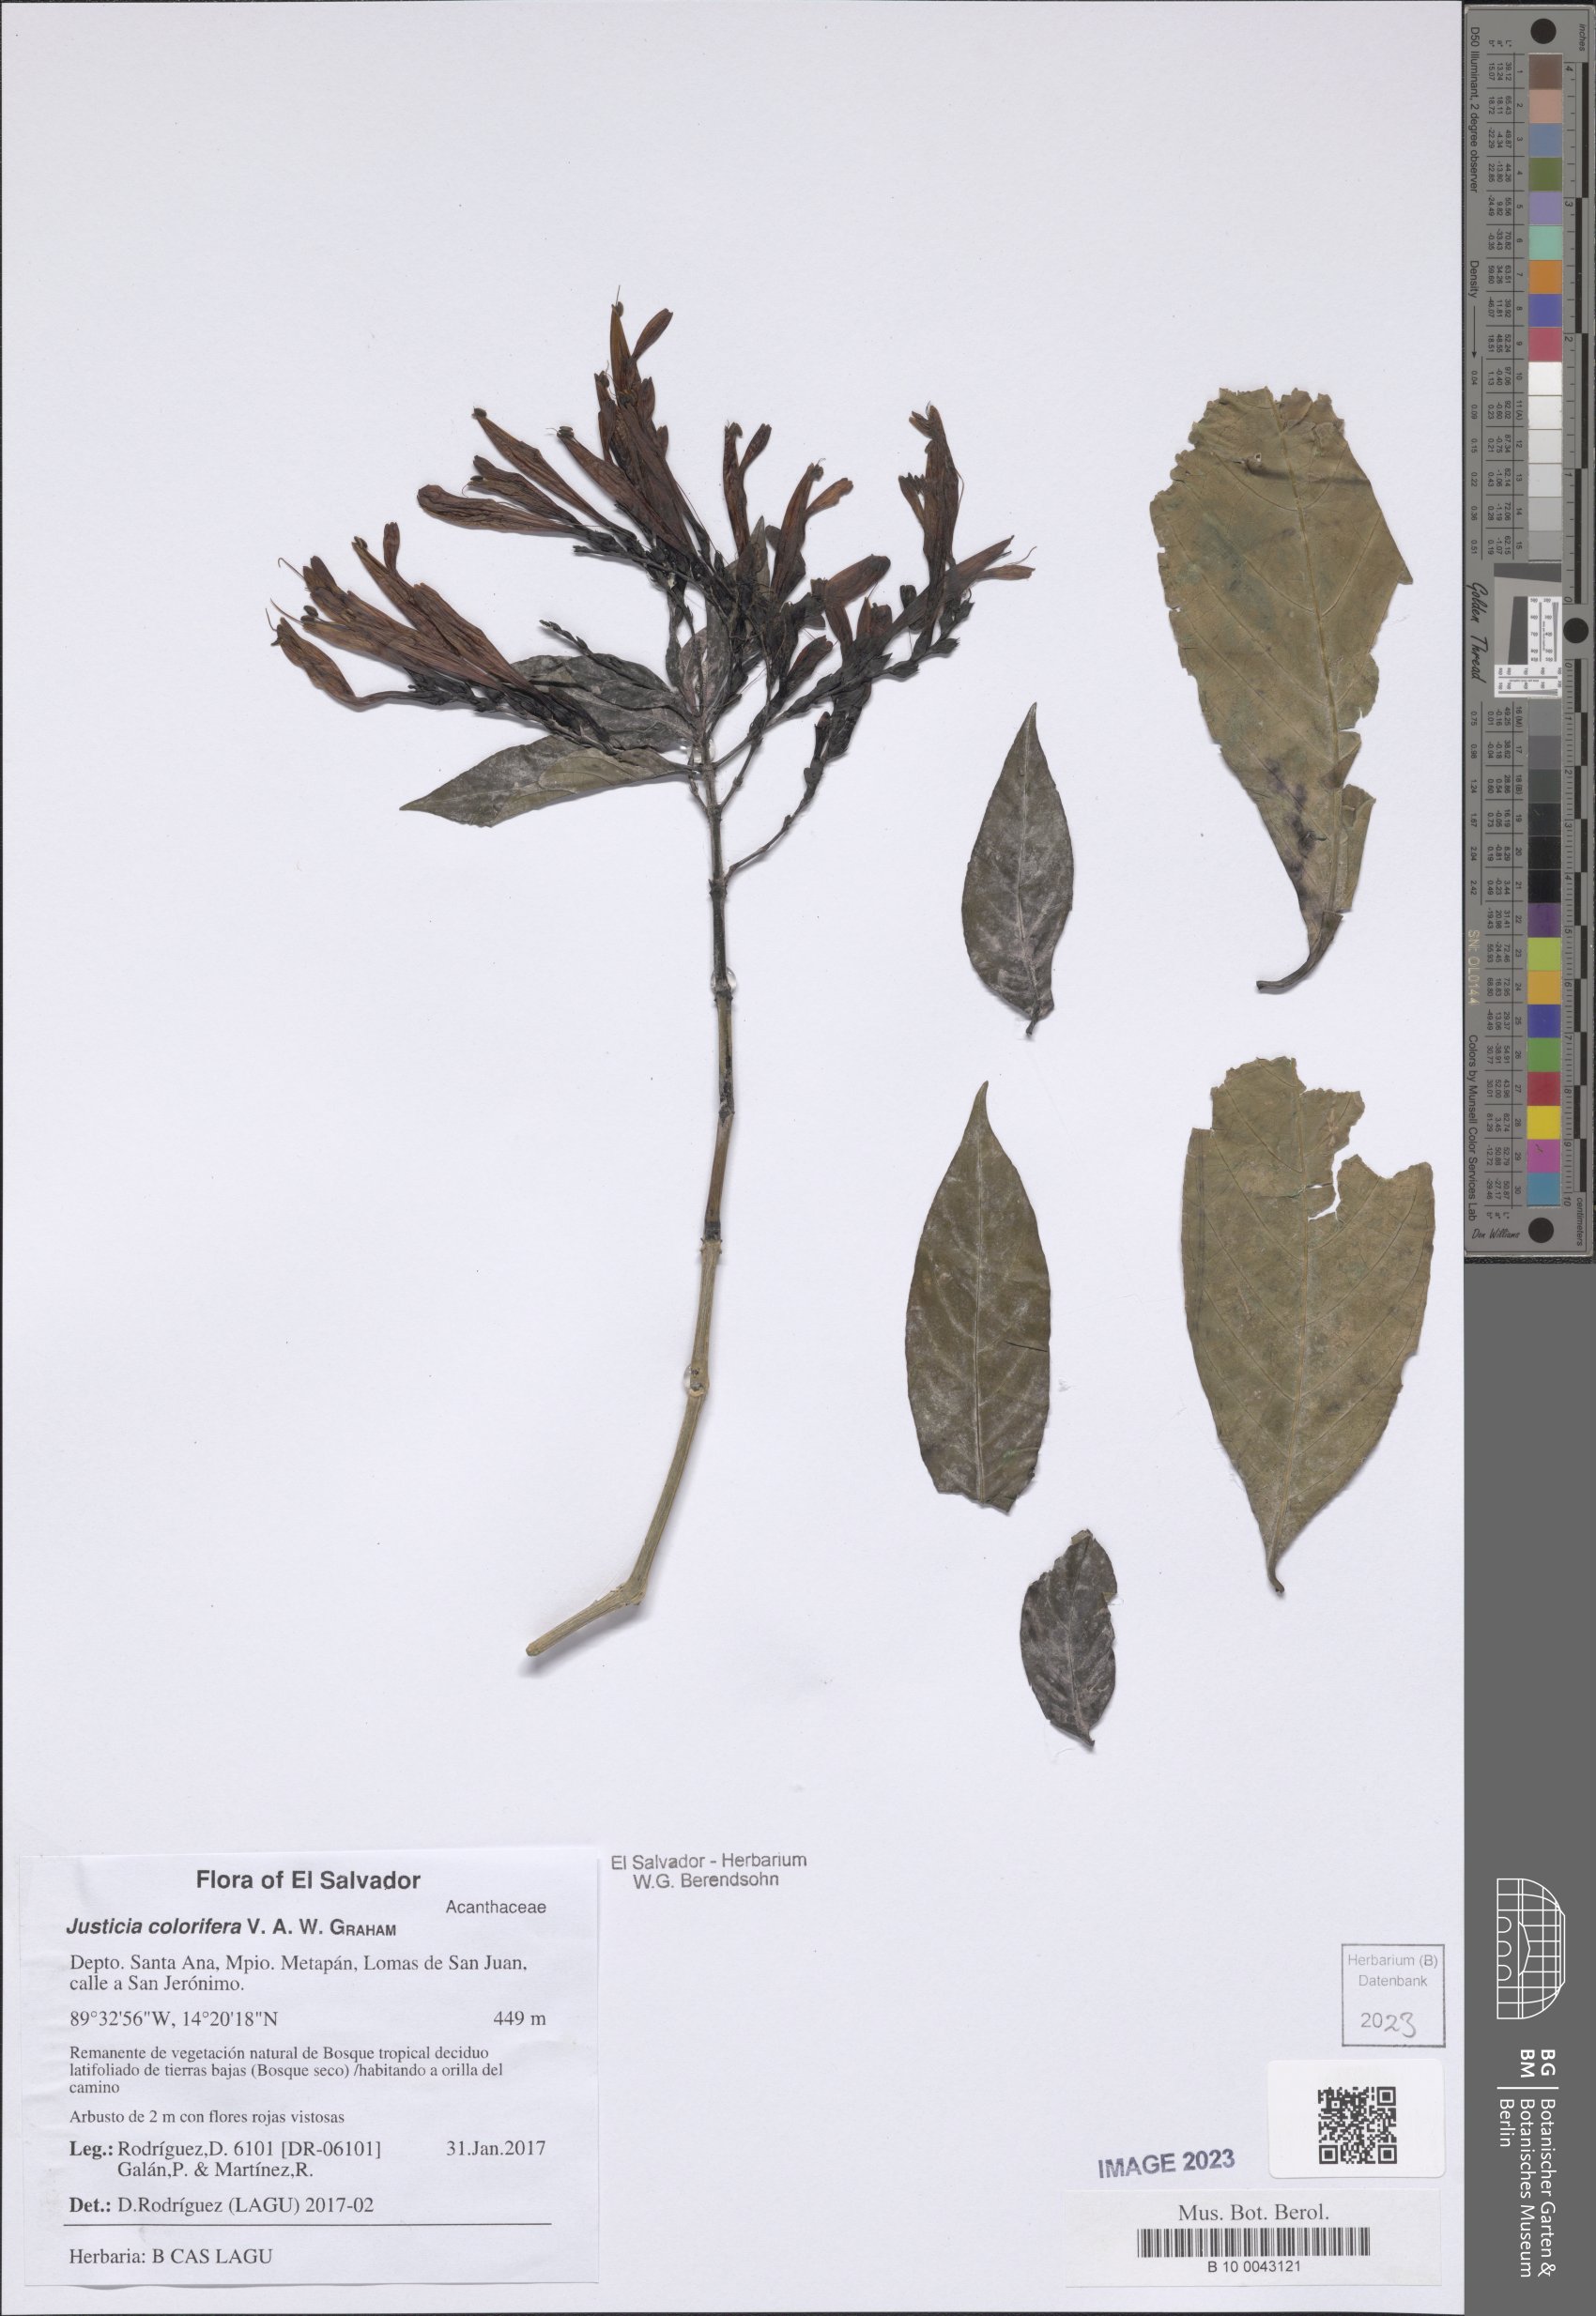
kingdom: Plantae
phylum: Tracheophyta
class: Magnoliopsida
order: Lamiales
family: Acanthaceae
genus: Justicia
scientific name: Justicia tinctoriella
